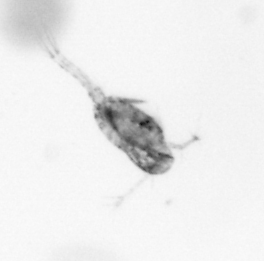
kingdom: Animalia
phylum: Arthropoda
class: Copepoda
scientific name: Copepoda
